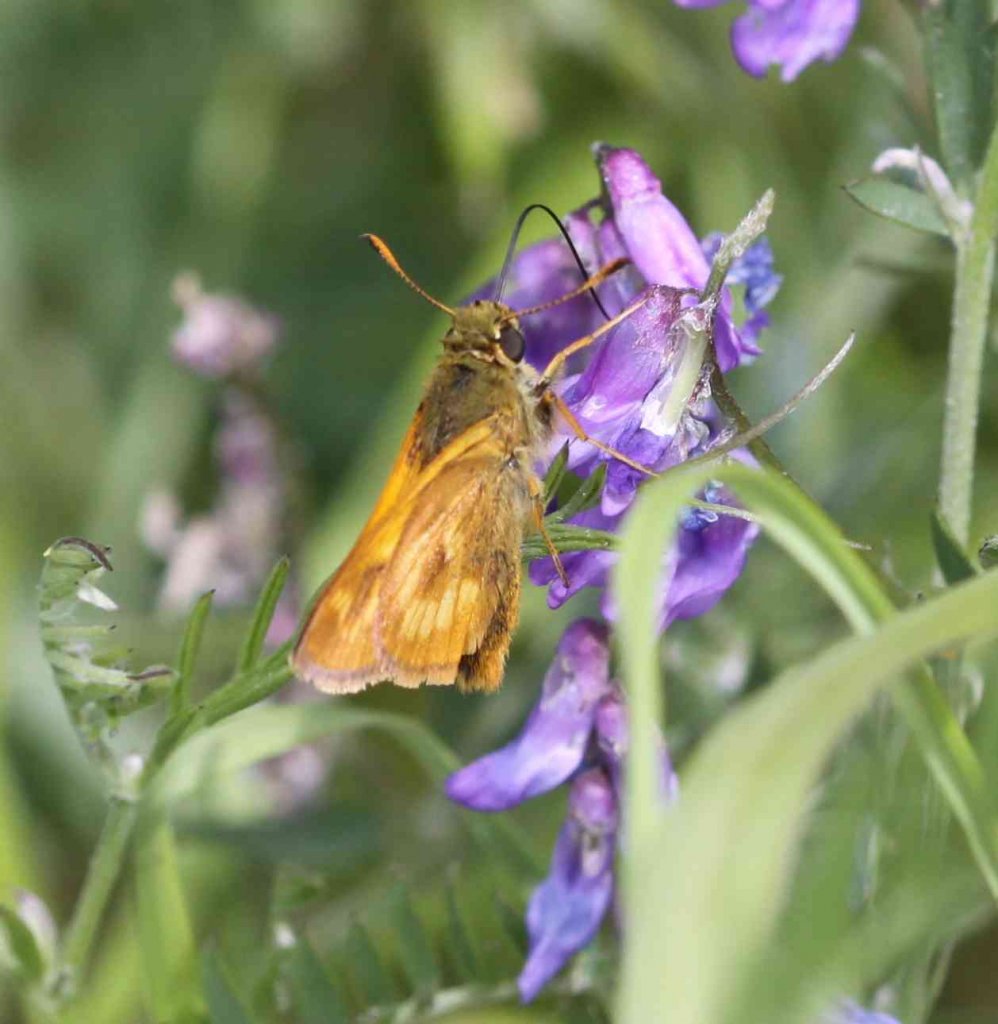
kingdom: Animalia
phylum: Arthropoda
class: Insecta
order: Lepidoptera
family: Hesperiidae
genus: Polites
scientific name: Polites
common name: Long Dash Skipper
